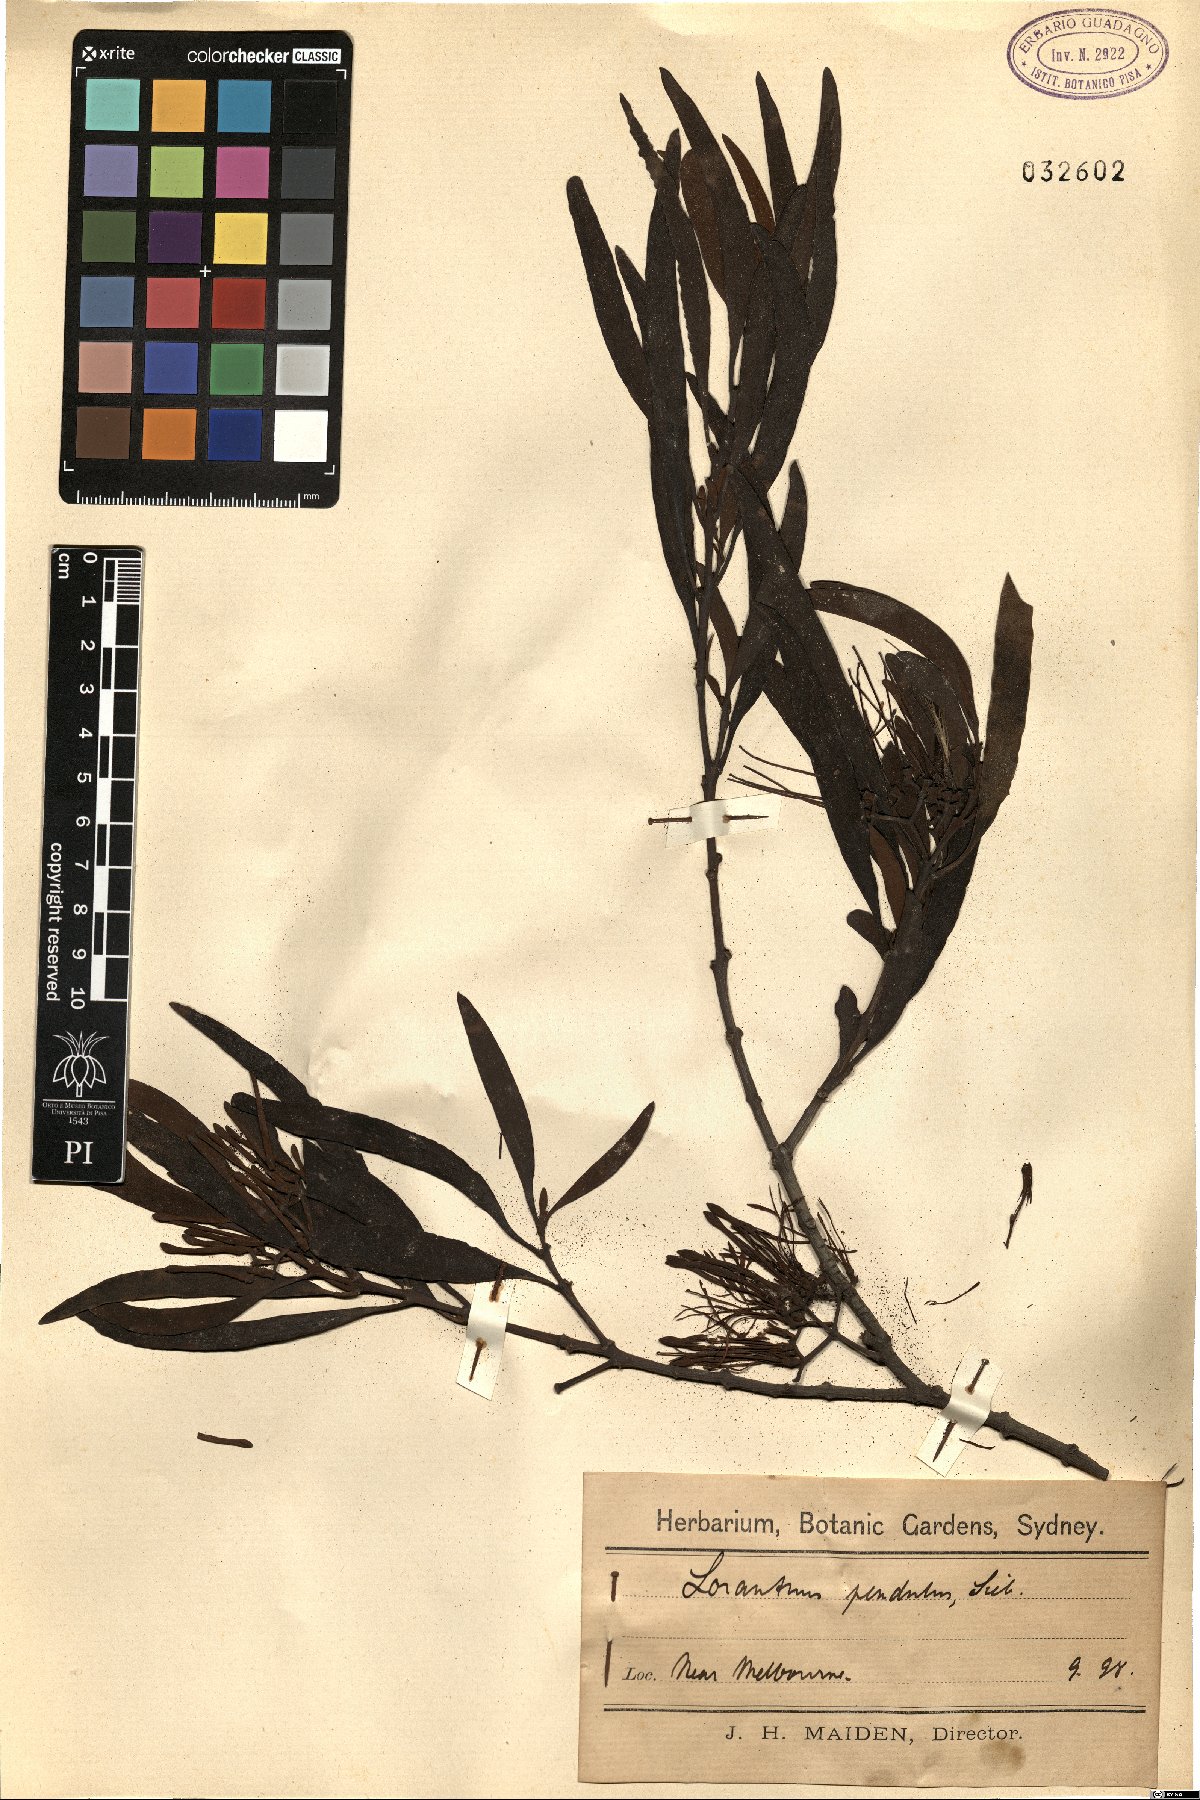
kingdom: Plantae
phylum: Tracheophyta
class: Magnoliopsida
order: Santalales
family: Loranthaceae
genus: Amyema
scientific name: Amyema pendula
